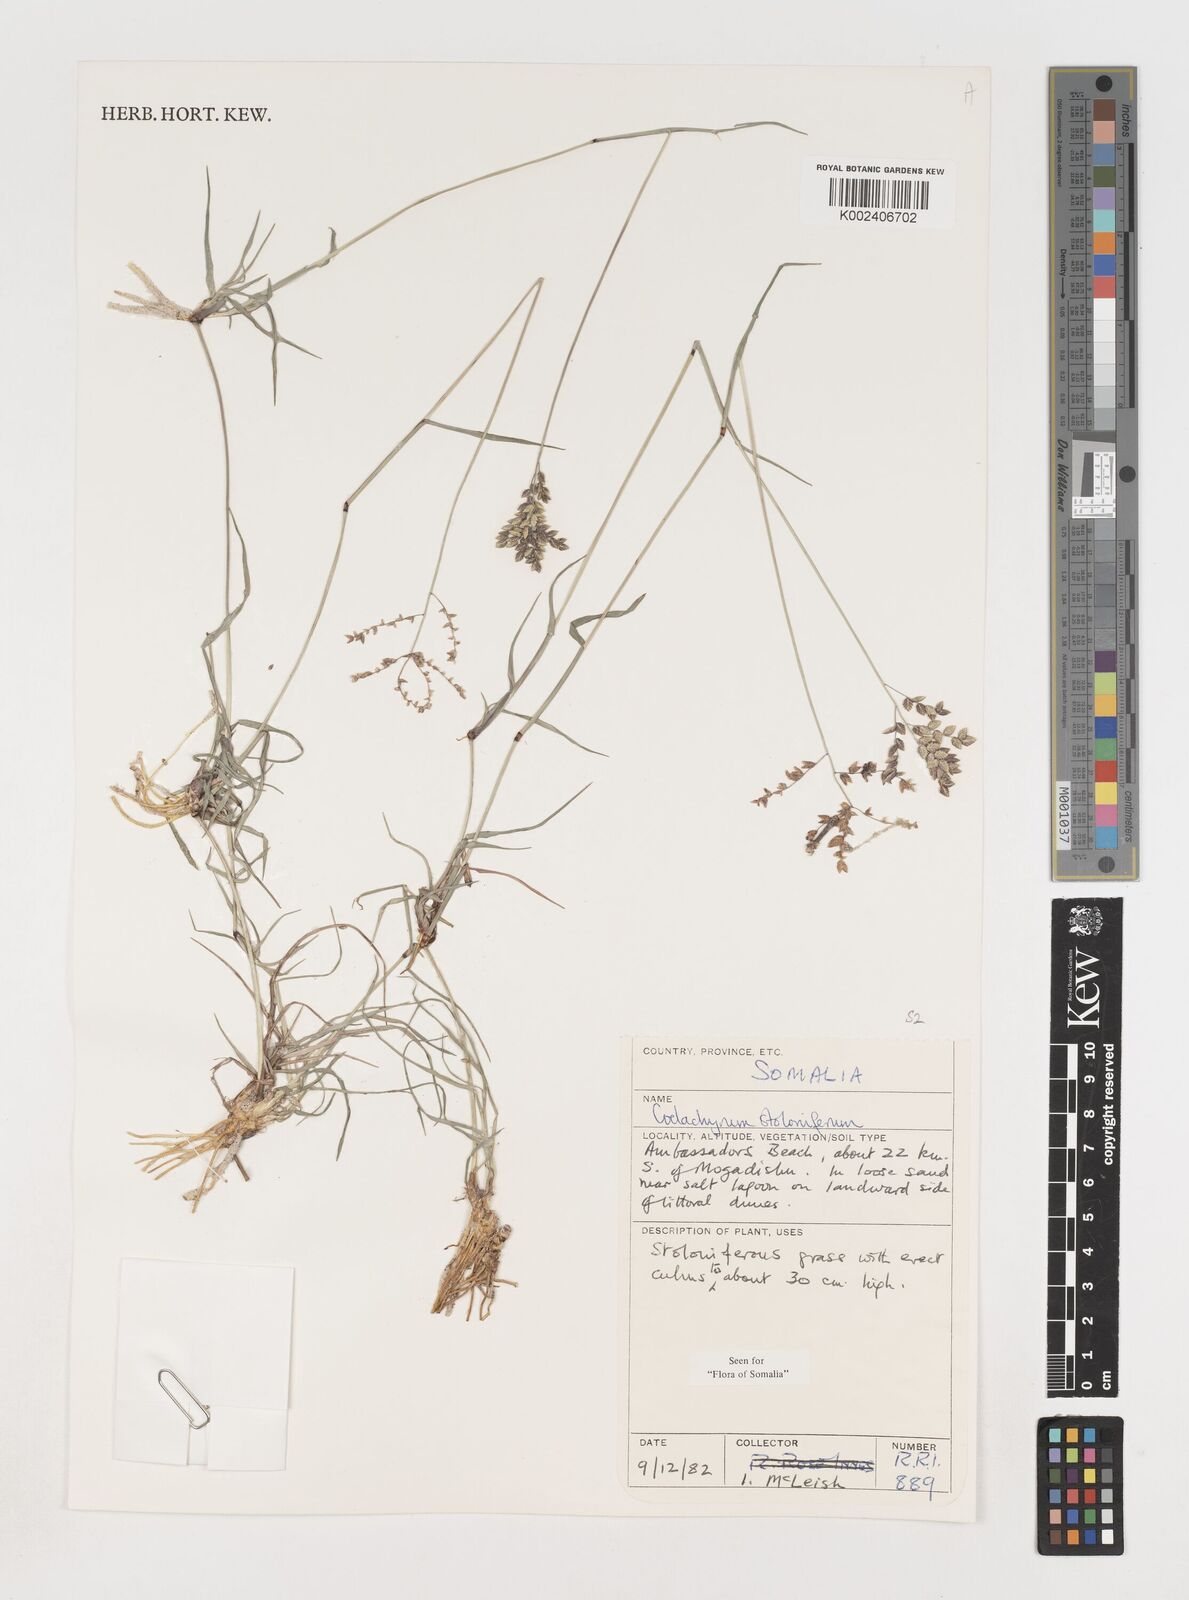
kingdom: Plantae
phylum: Tracheophyta
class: Liliopsida
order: Poales
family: Poaceae
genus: Coelachyrum
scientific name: Coelachyrum piercei
